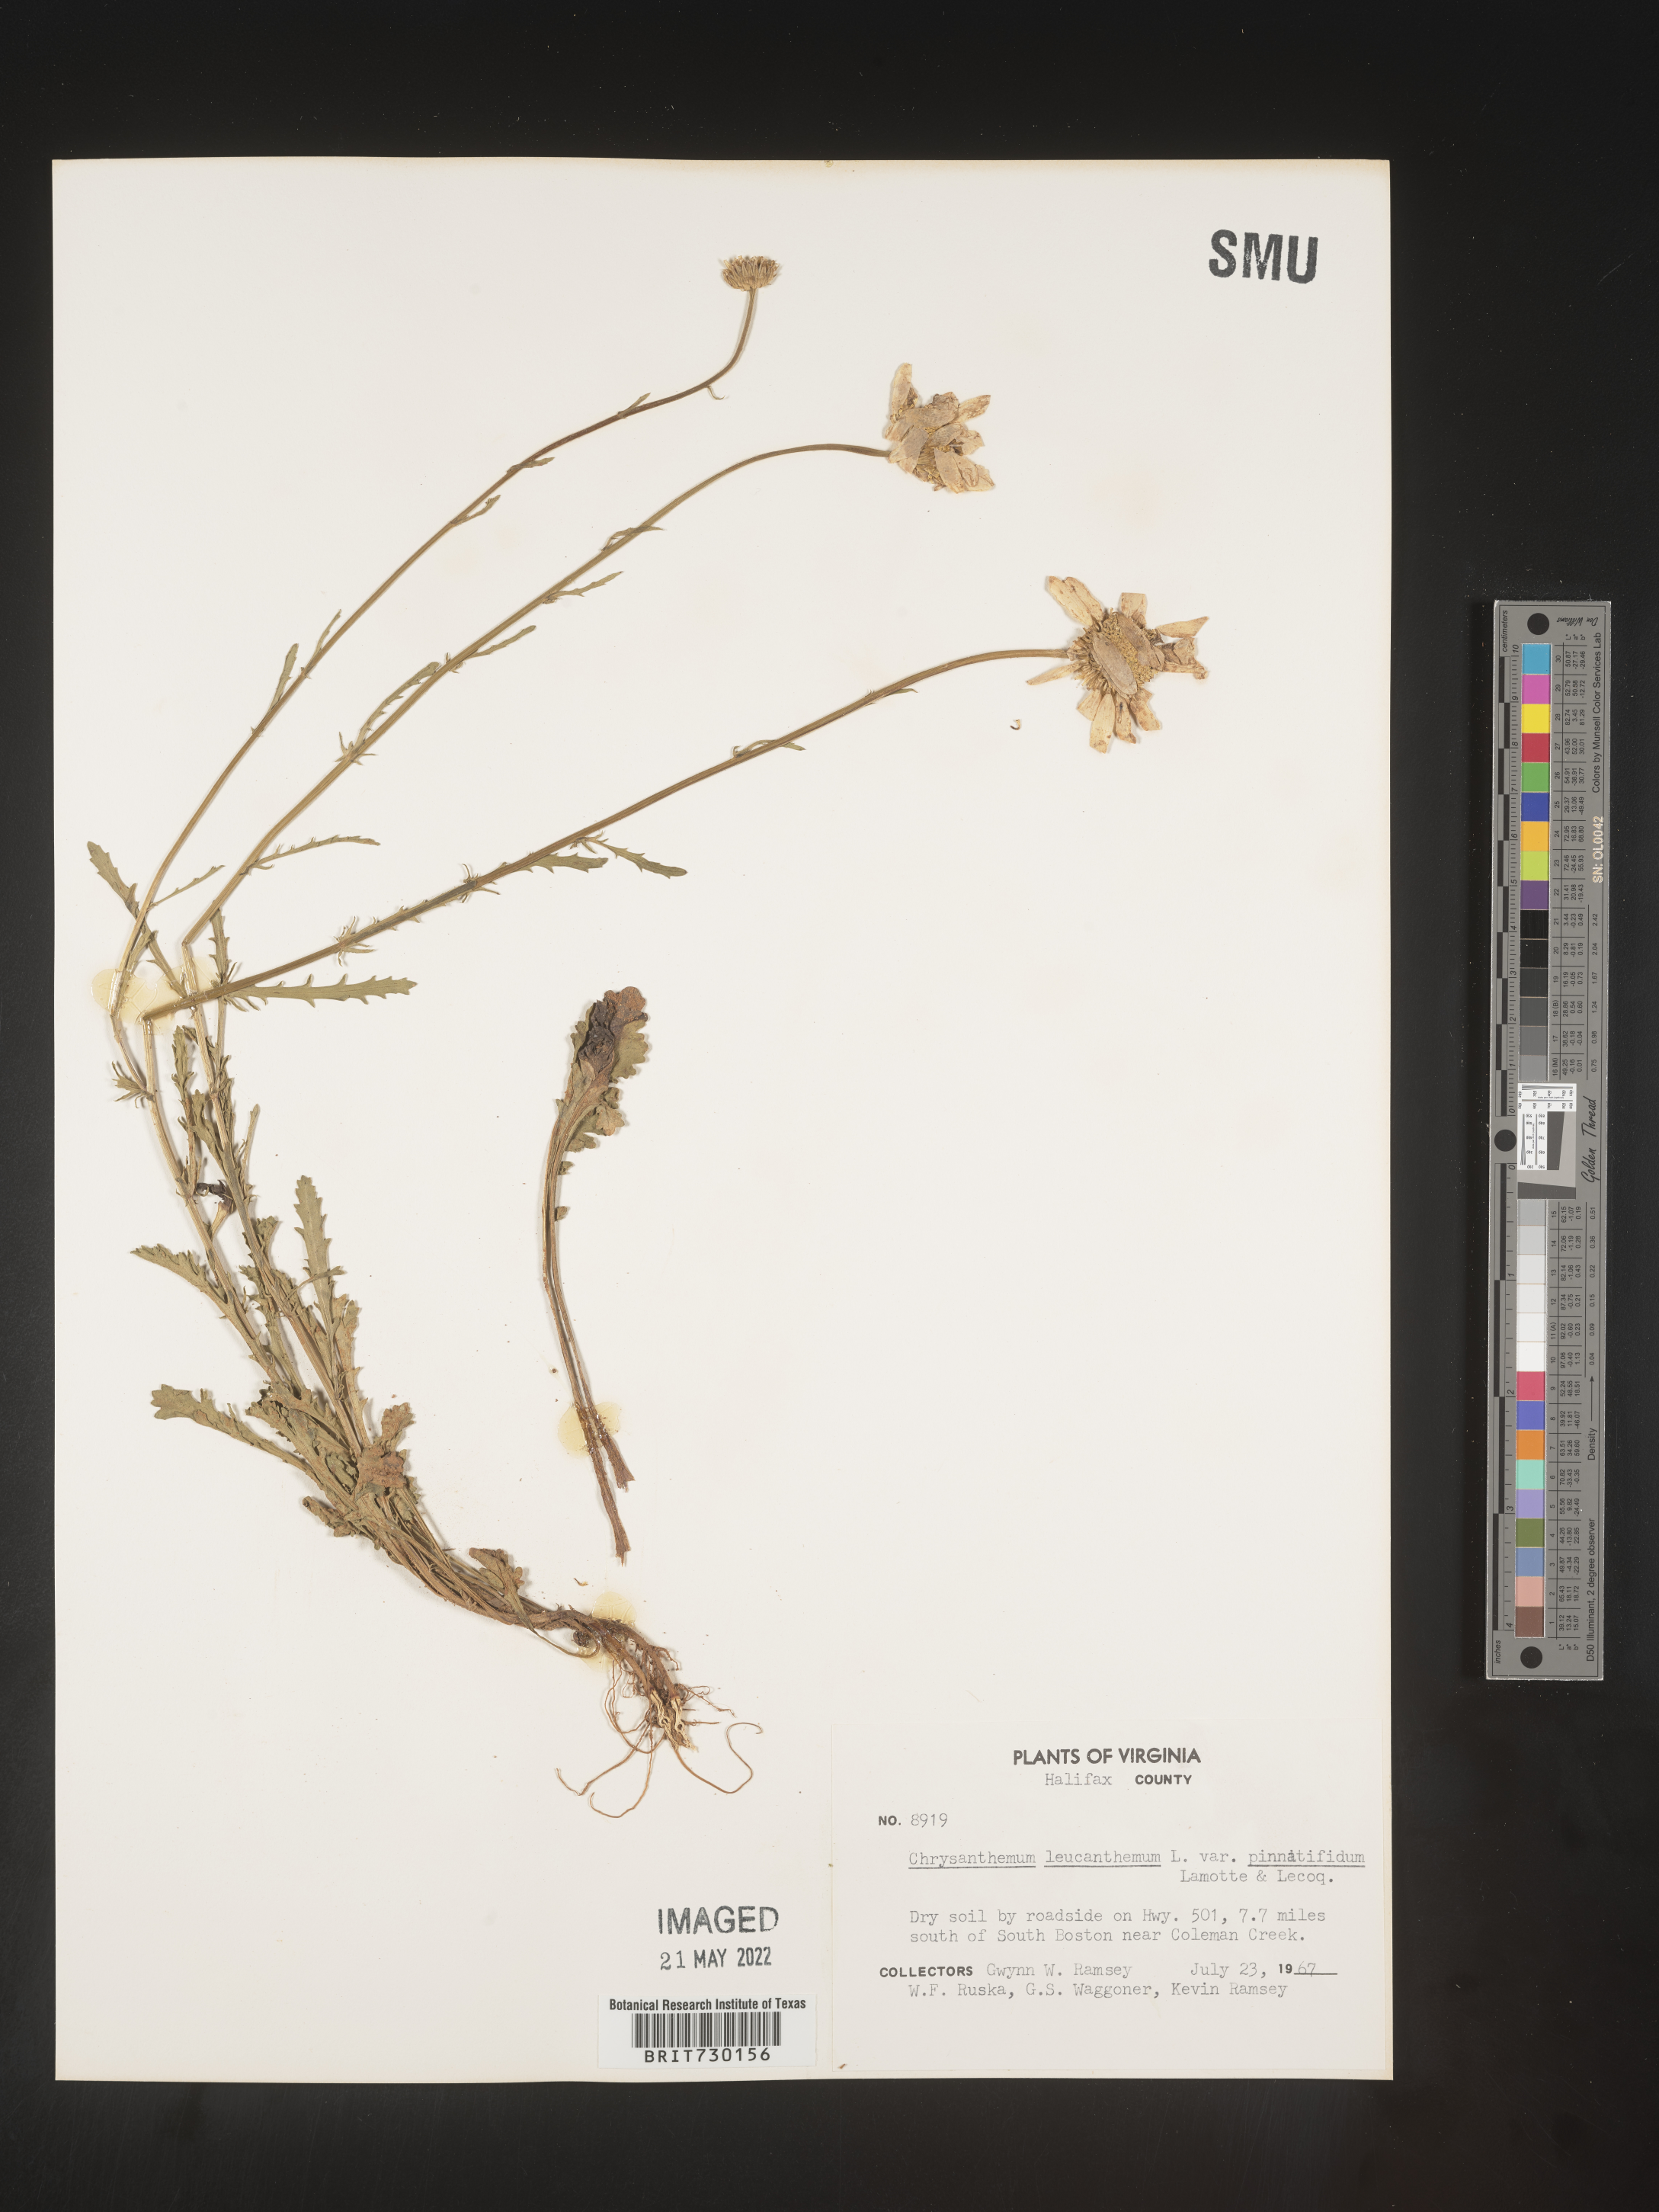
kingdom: Plantae
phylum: Tracheophyta
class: Magnoliopsida
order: Asterales
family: Asteraceae
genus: Leucanthemum
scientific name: Leucanthemum vulgare
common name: Oxeye daisy
